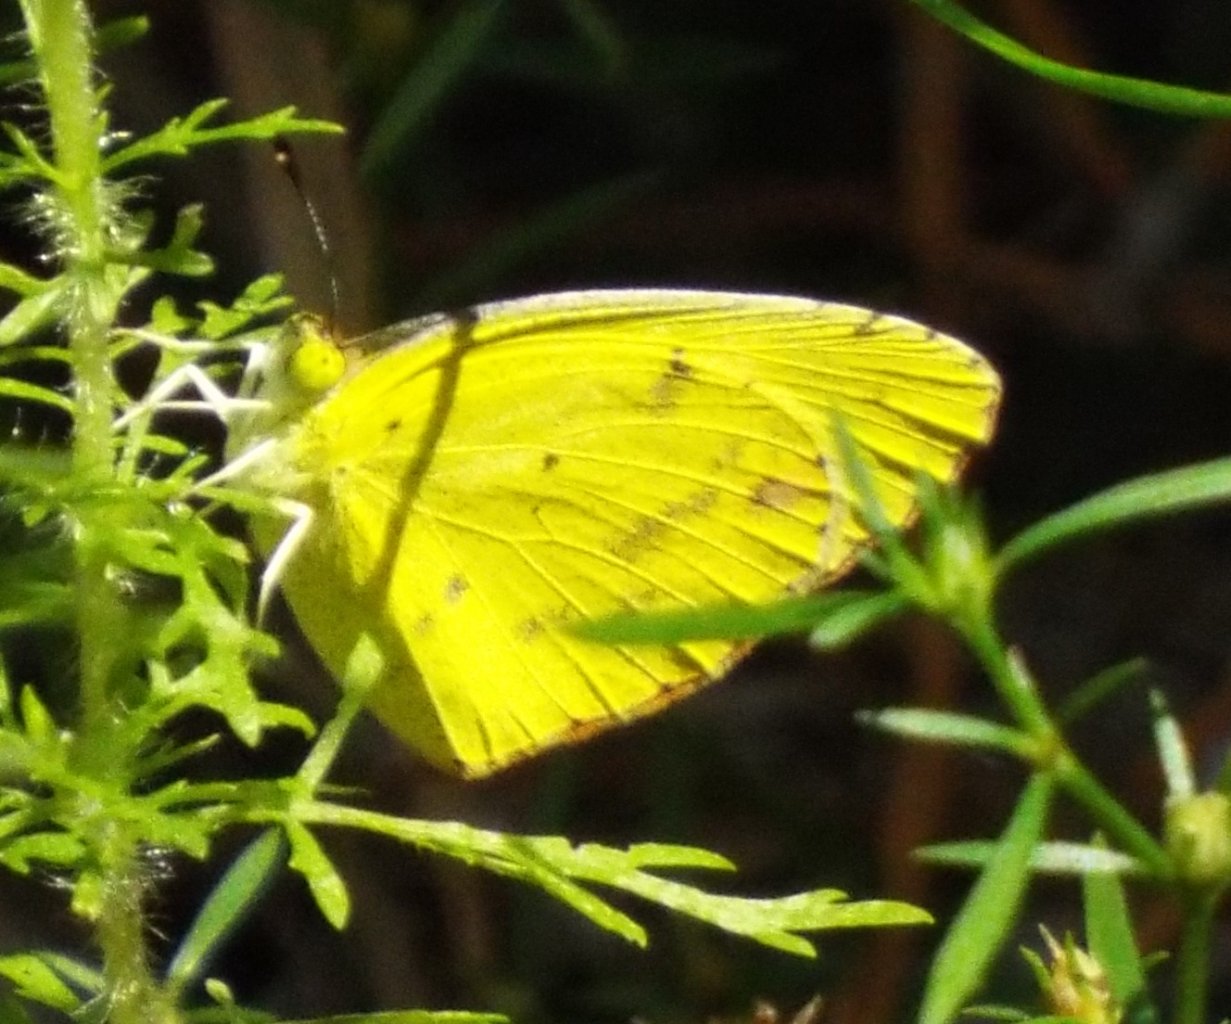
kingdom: Animalia
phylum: Arthropoda
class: Insecta
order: Lepidoptera
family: Pieridae
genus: Pyrisitia
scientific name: Pyrisitia lisa
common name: Little Yellow
